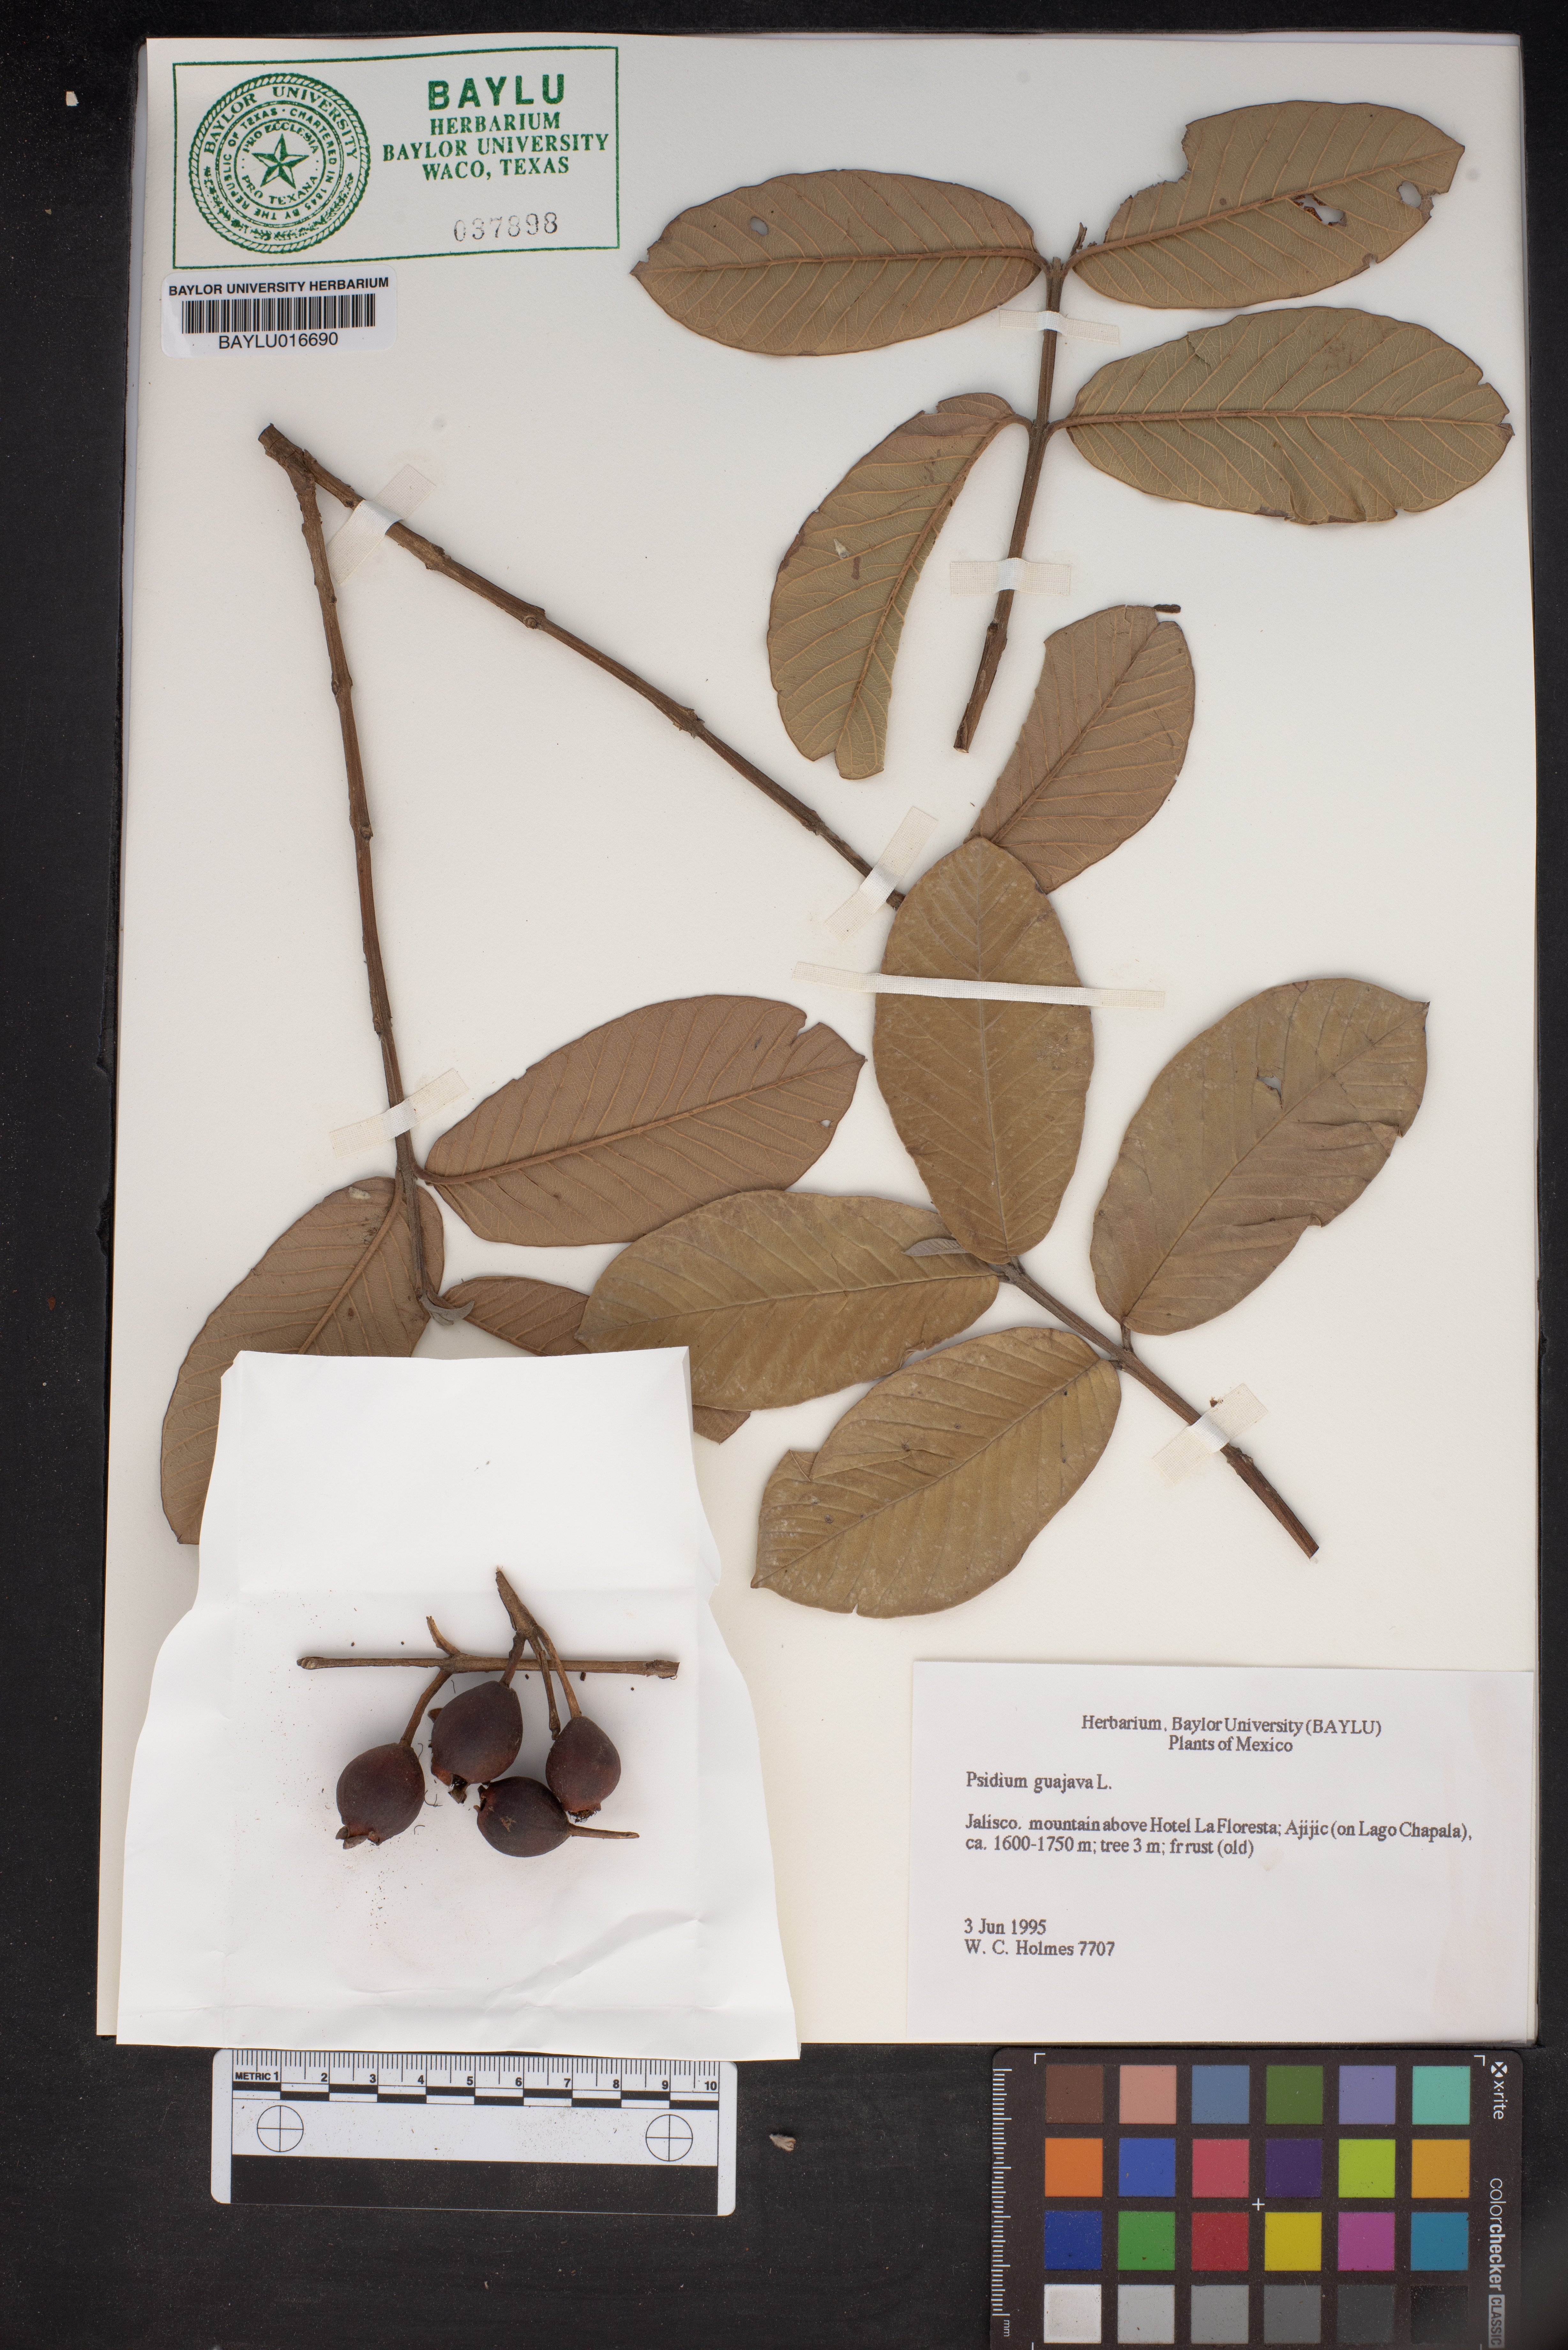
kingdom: Plantae
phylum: Tracheophyta
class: Magnoliopsida
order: Myrtales
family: Myrtaceae
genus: Psidium
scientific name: Psidium guajava
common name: Guava
